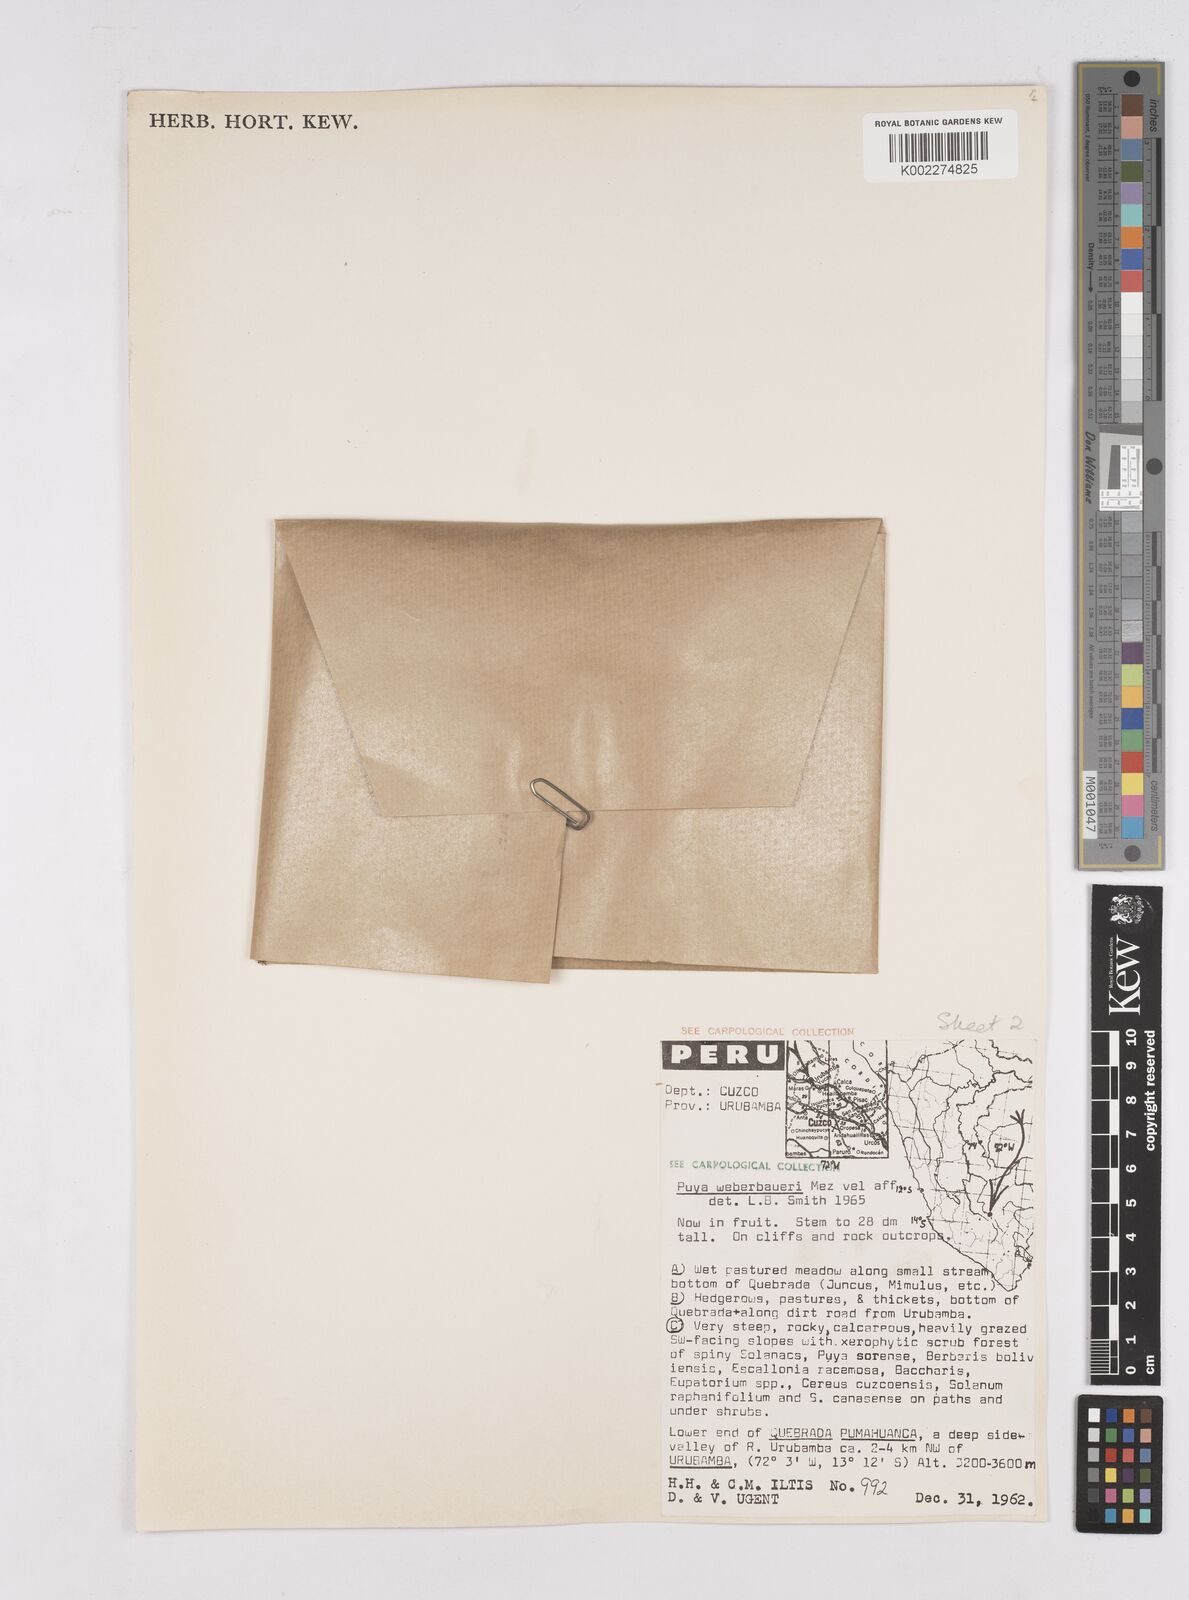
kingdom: Plantae
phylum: Tracheophyta
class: Liliopsida
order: Poales
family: Bromeliaceae
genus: Puya
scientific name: Puya weberbaueri
